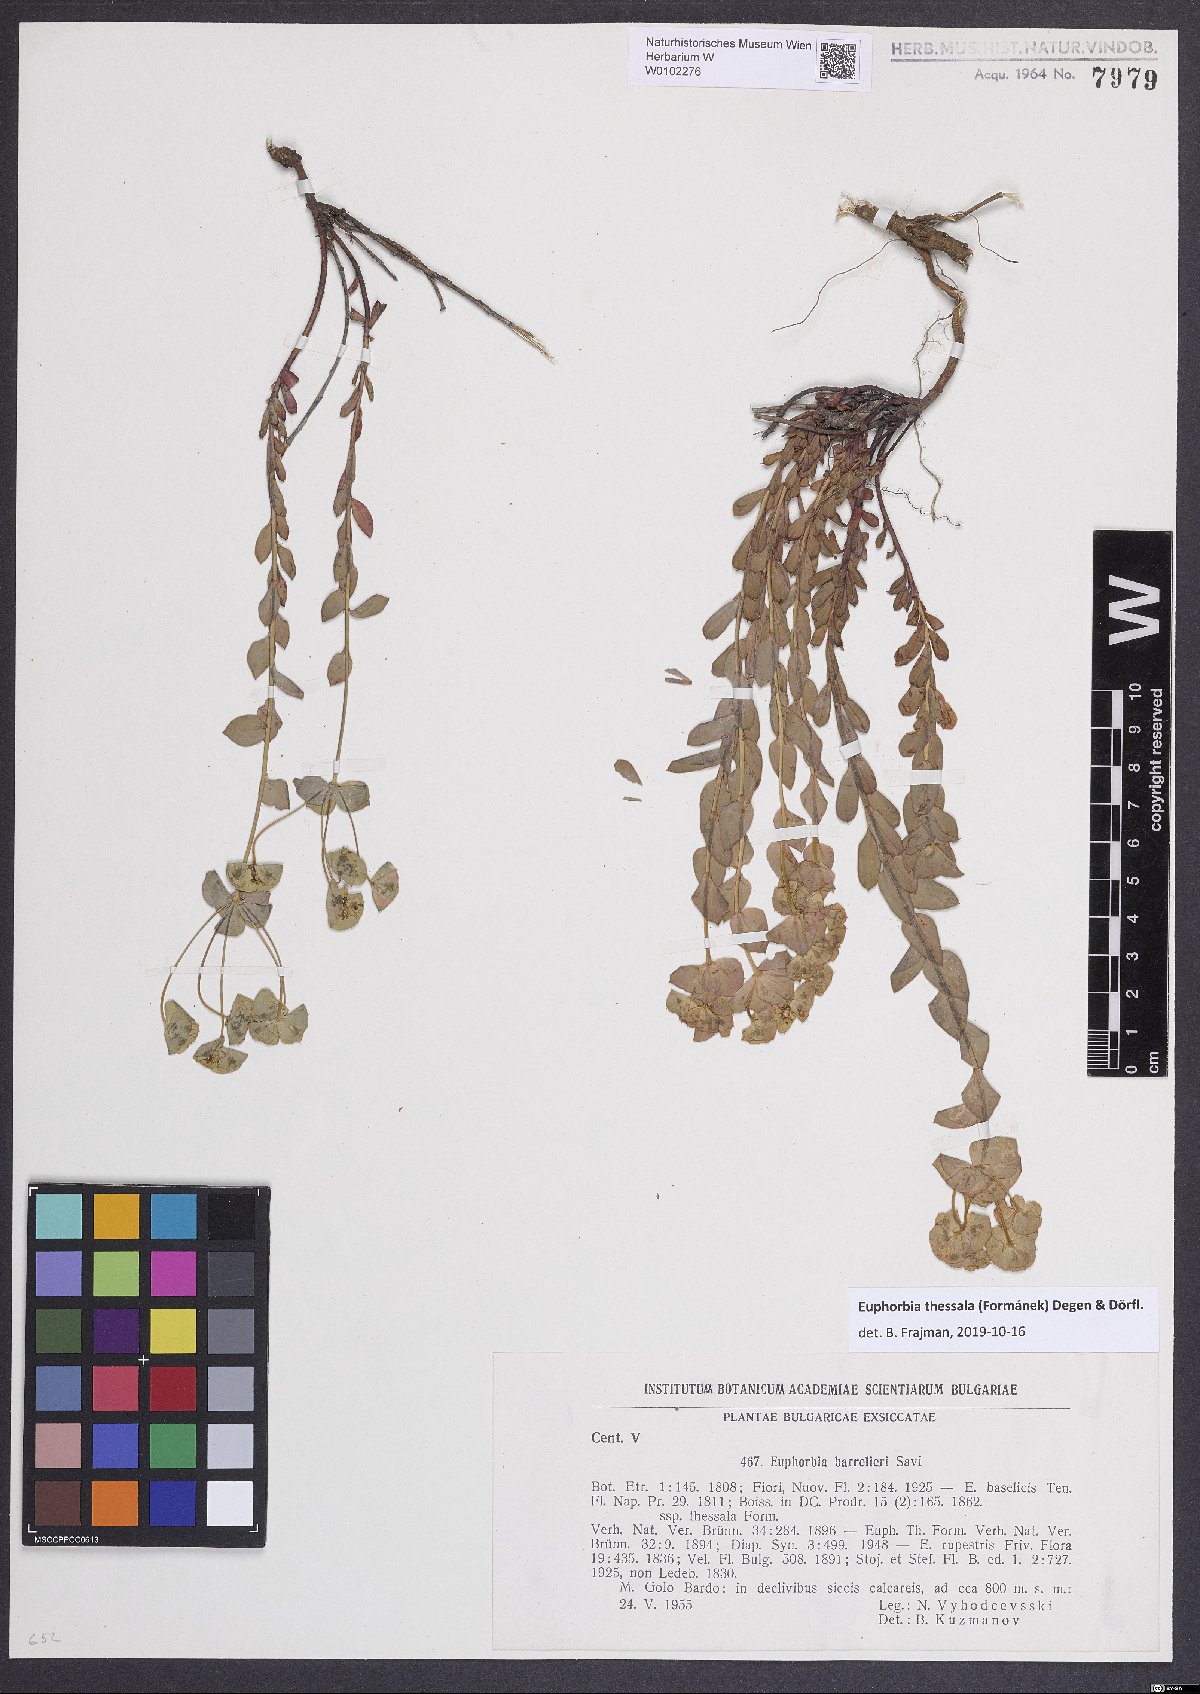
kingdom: Plantae
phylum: Tracheophyta
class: Magnoliopsida
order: Malpighiales
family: Euphorbiaceae
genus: Euphorbia
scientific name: Euphorbia barrelieri
